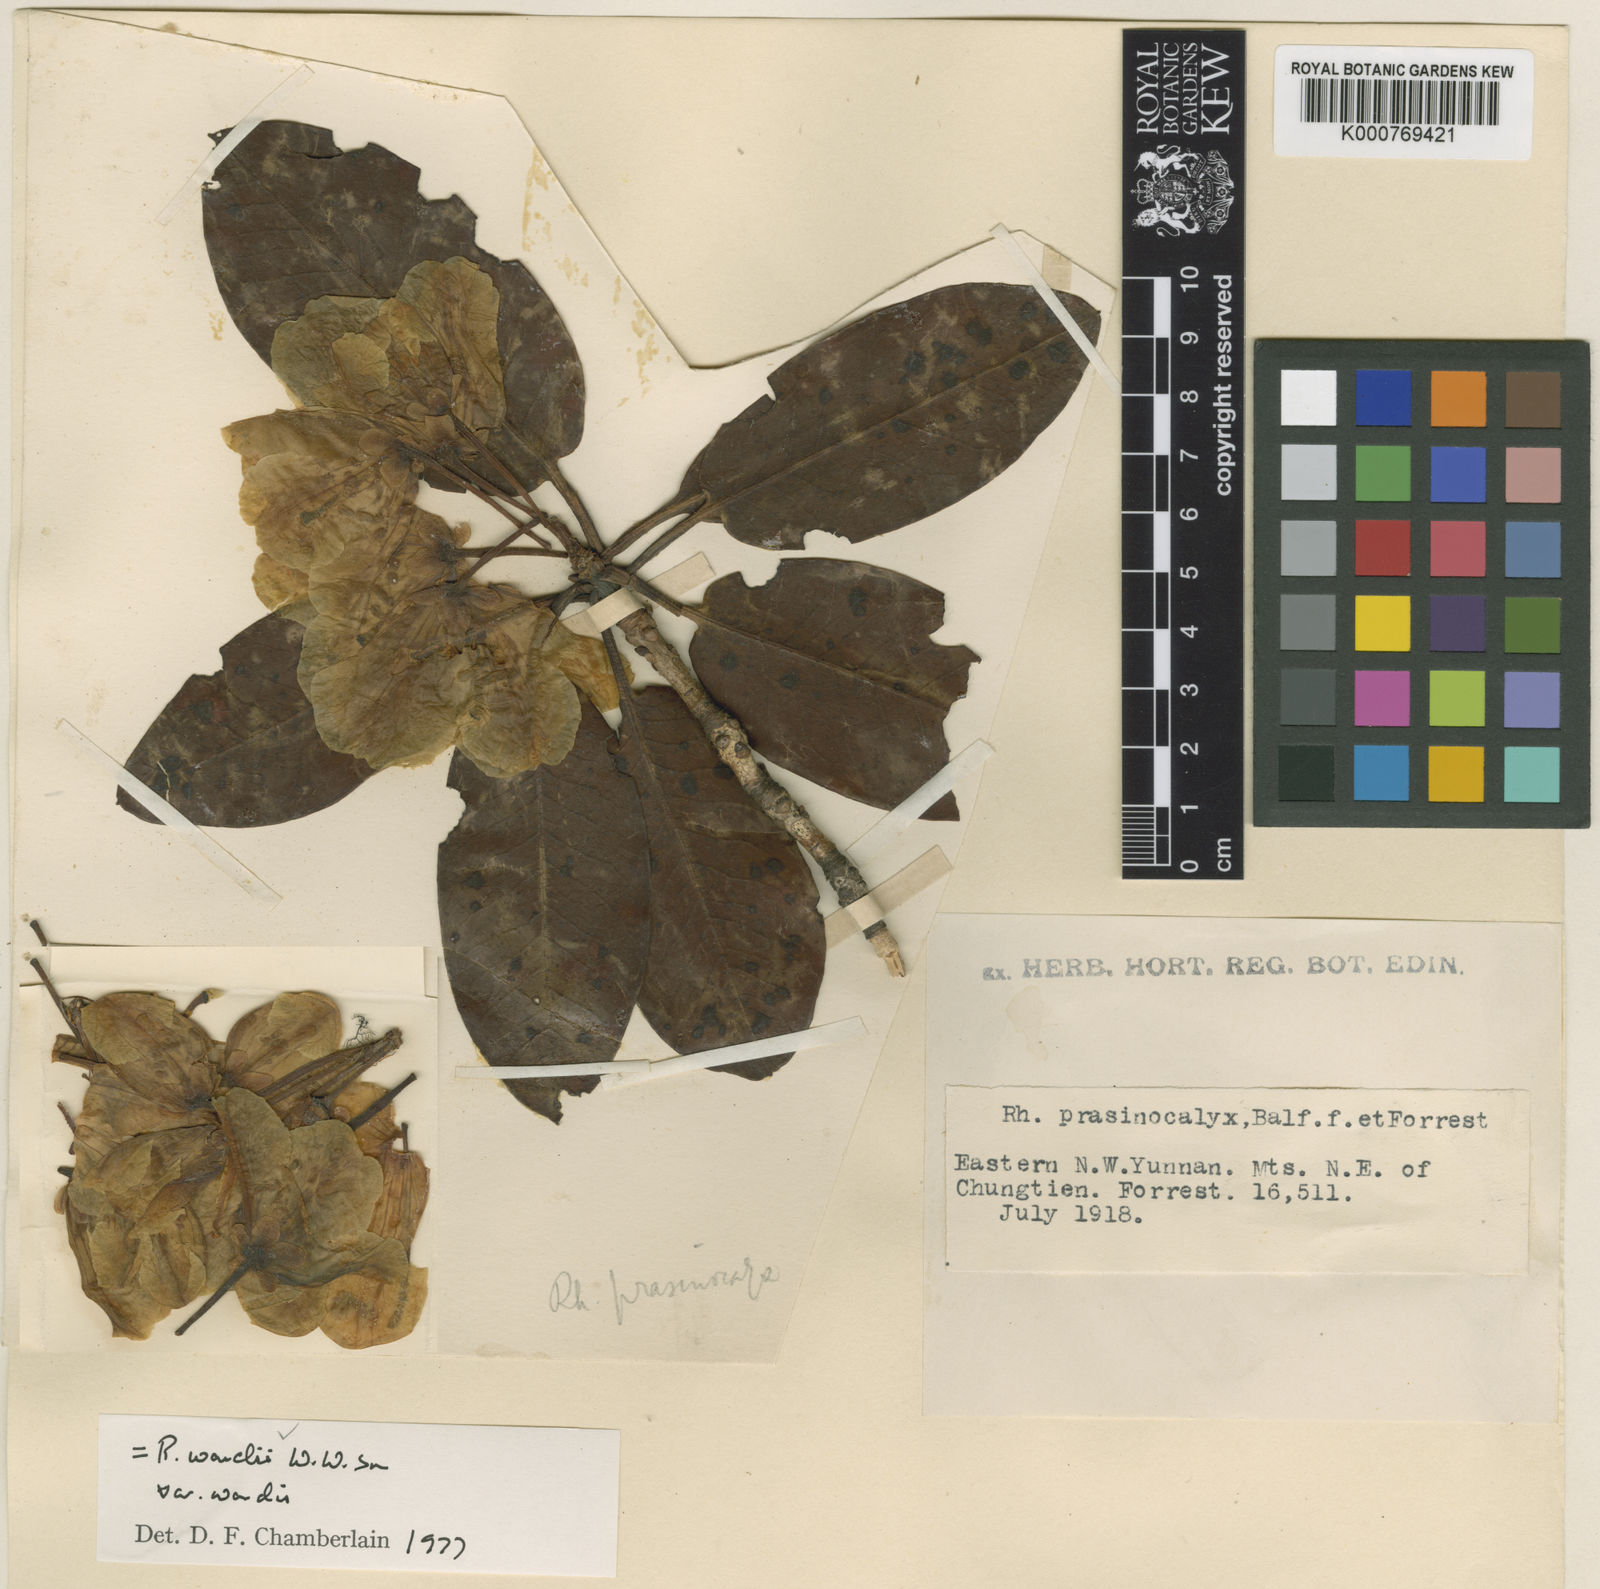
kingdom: Plantae
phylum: Tracheophyta
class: Magnoliopsida
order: Ericales
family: Ericaceae
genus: Rhododendron
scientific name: Rhododendron wardii
